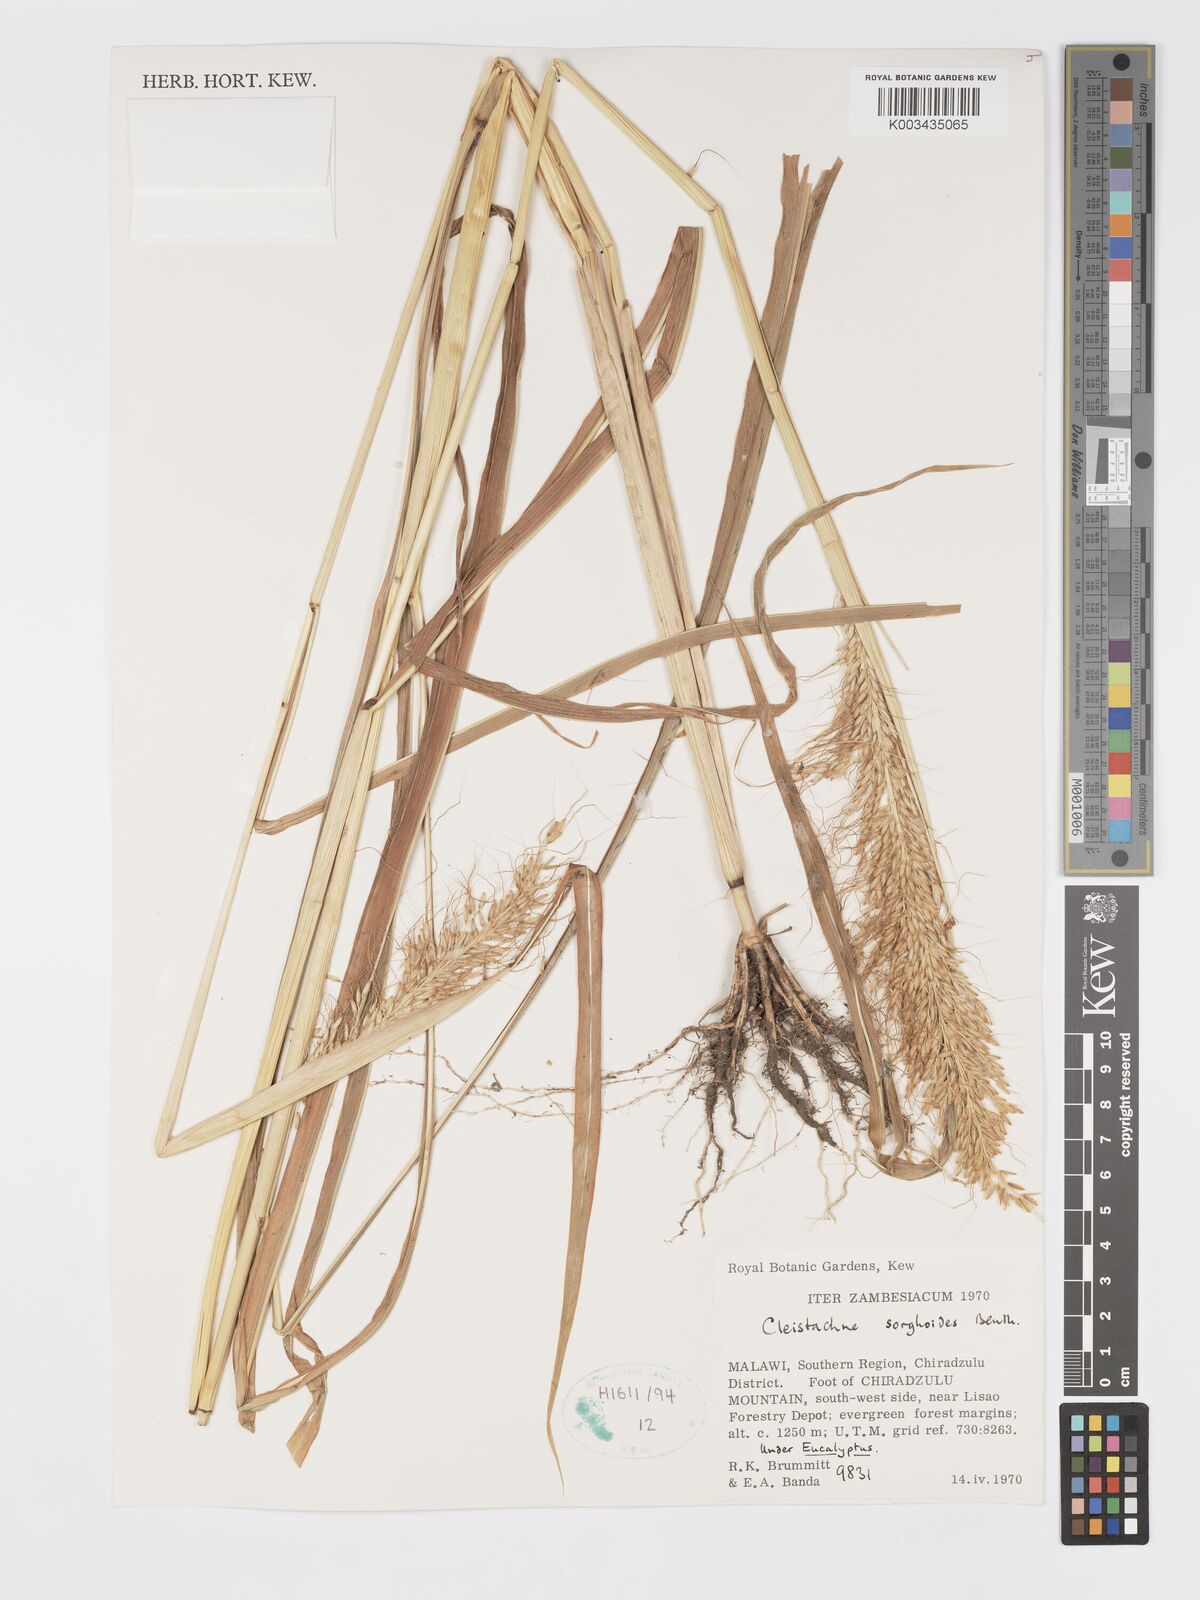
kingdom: Plantae
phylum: Tracheophyta
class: Liliopsida
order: Poales
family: Poaceae
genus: Cleistachne
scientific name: Cleistachne sorghoides
